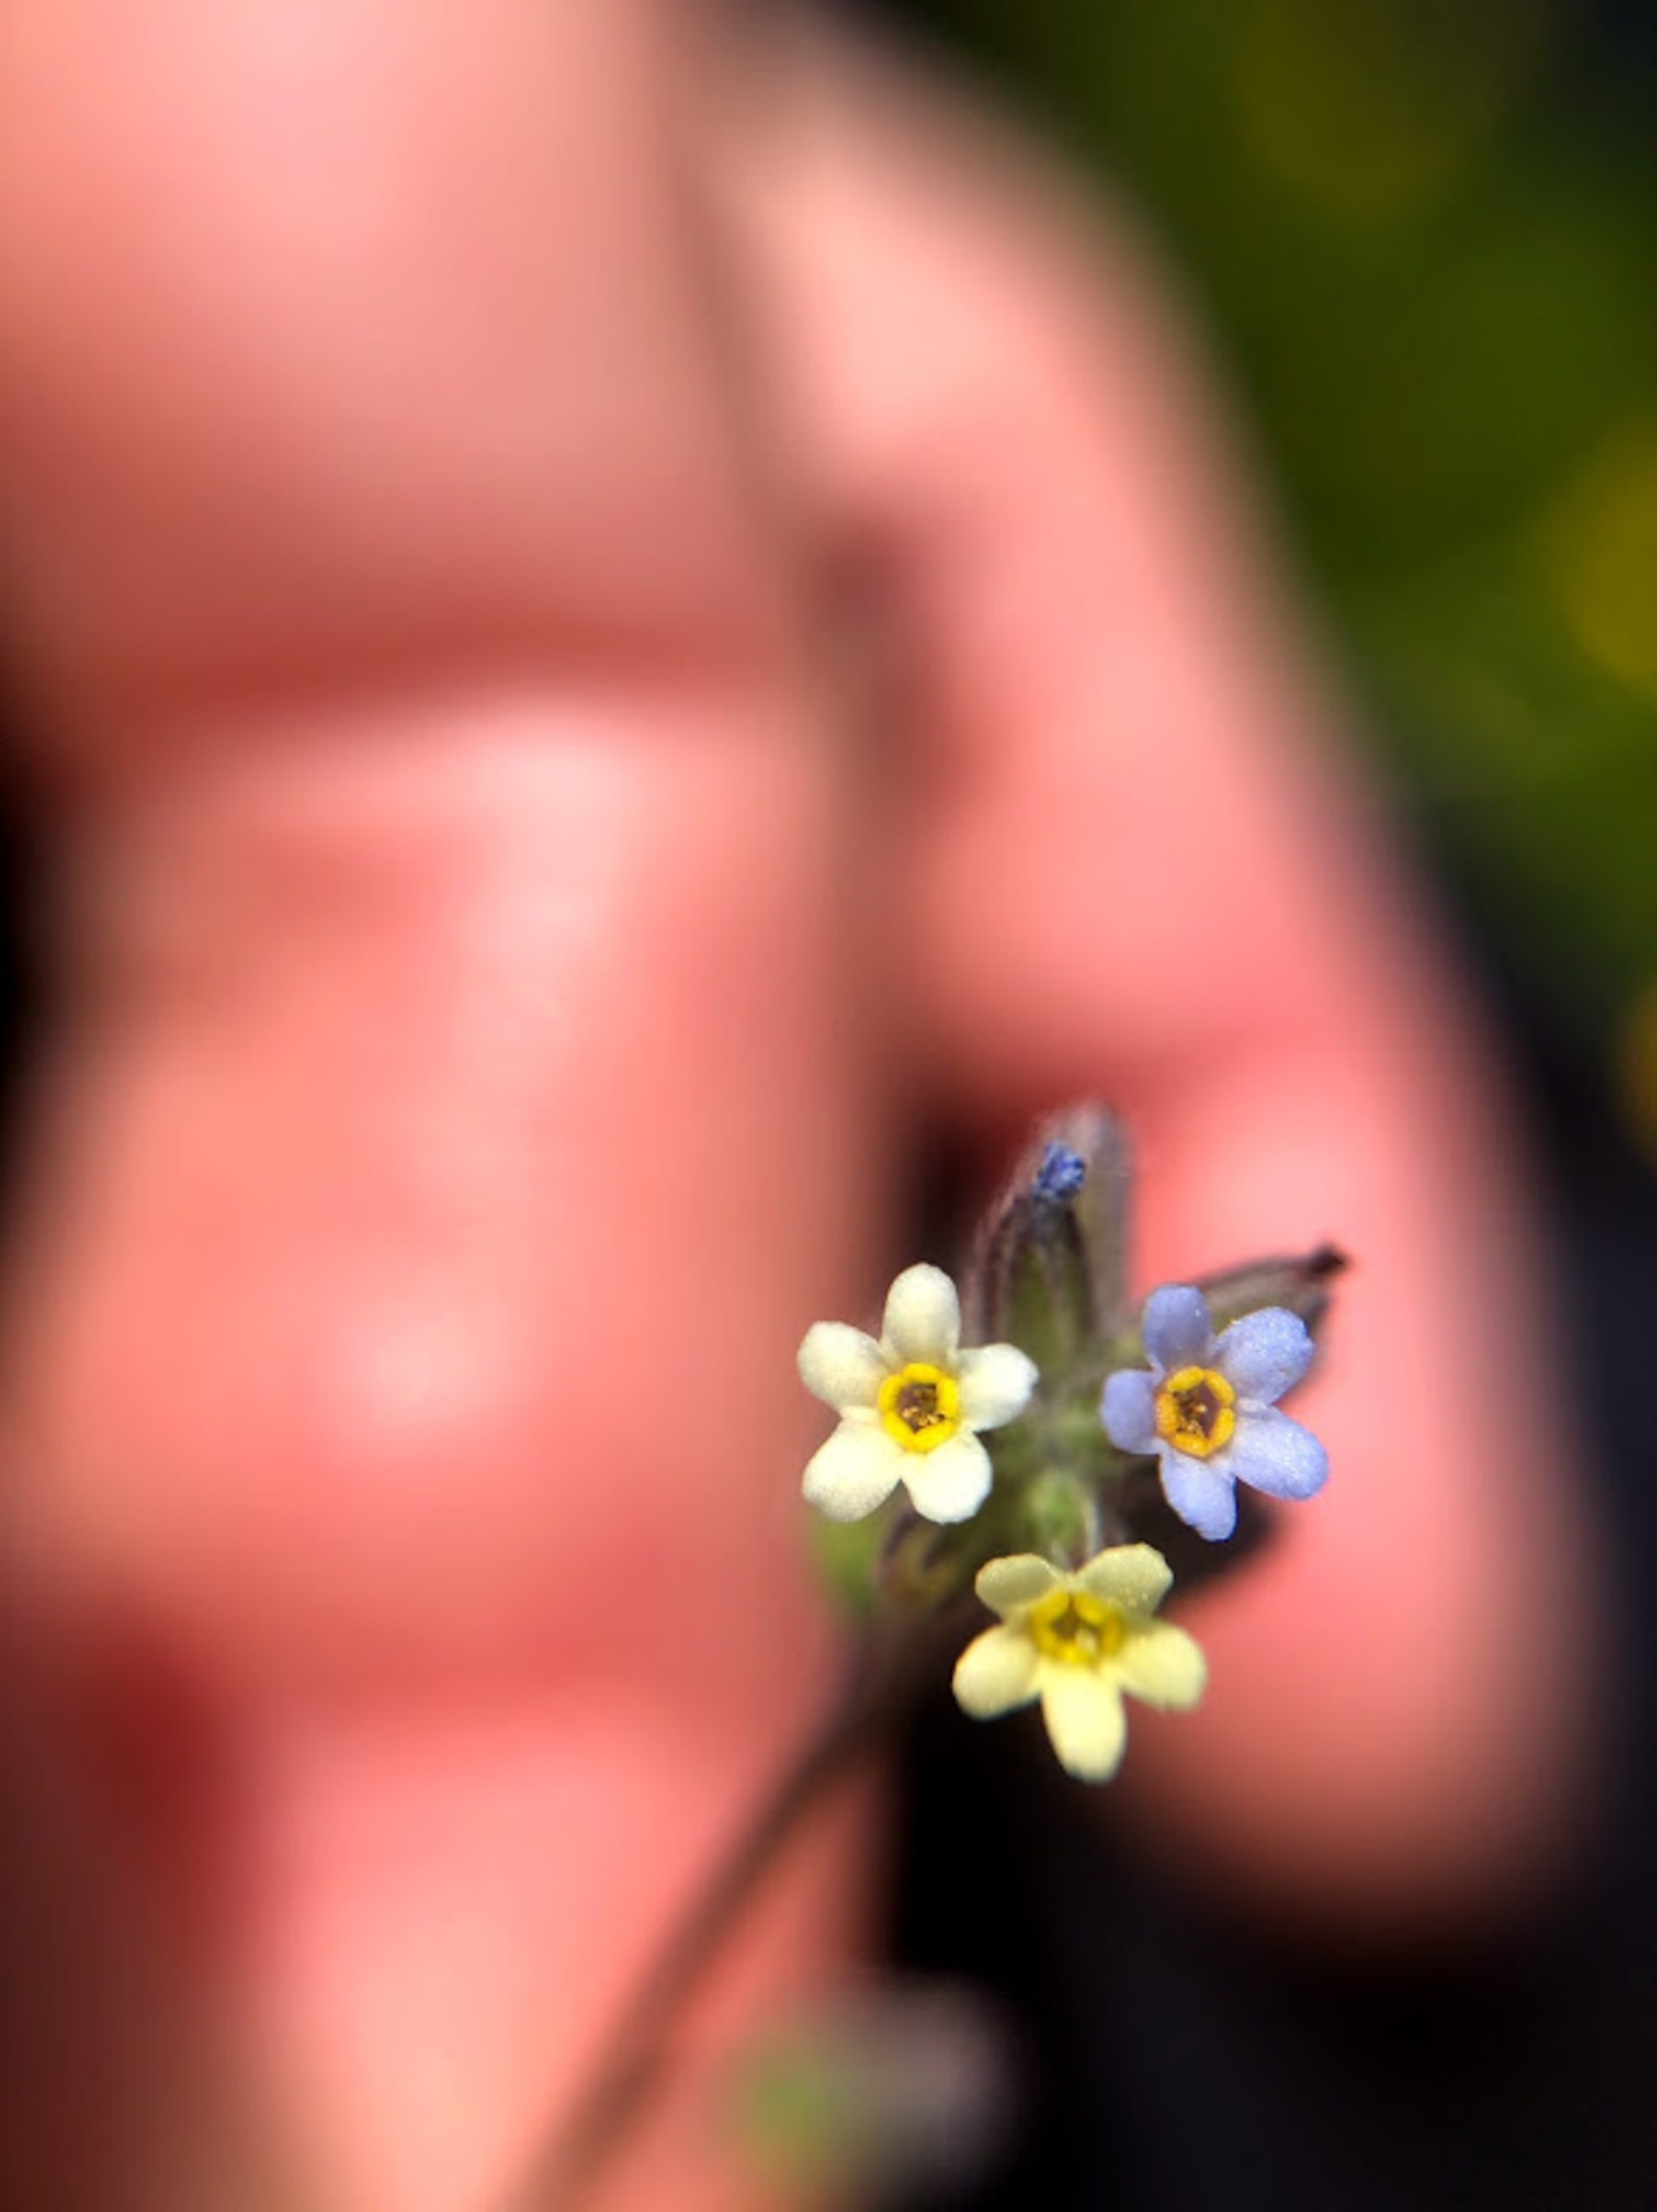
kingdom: Plantae
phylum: Tracheophyta
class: Magnoliopsida
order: Boraginales
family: Boraginaceae
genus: Myosotis
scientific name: Myosotis discolor
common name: Forskelligfarvet forglemmigej
